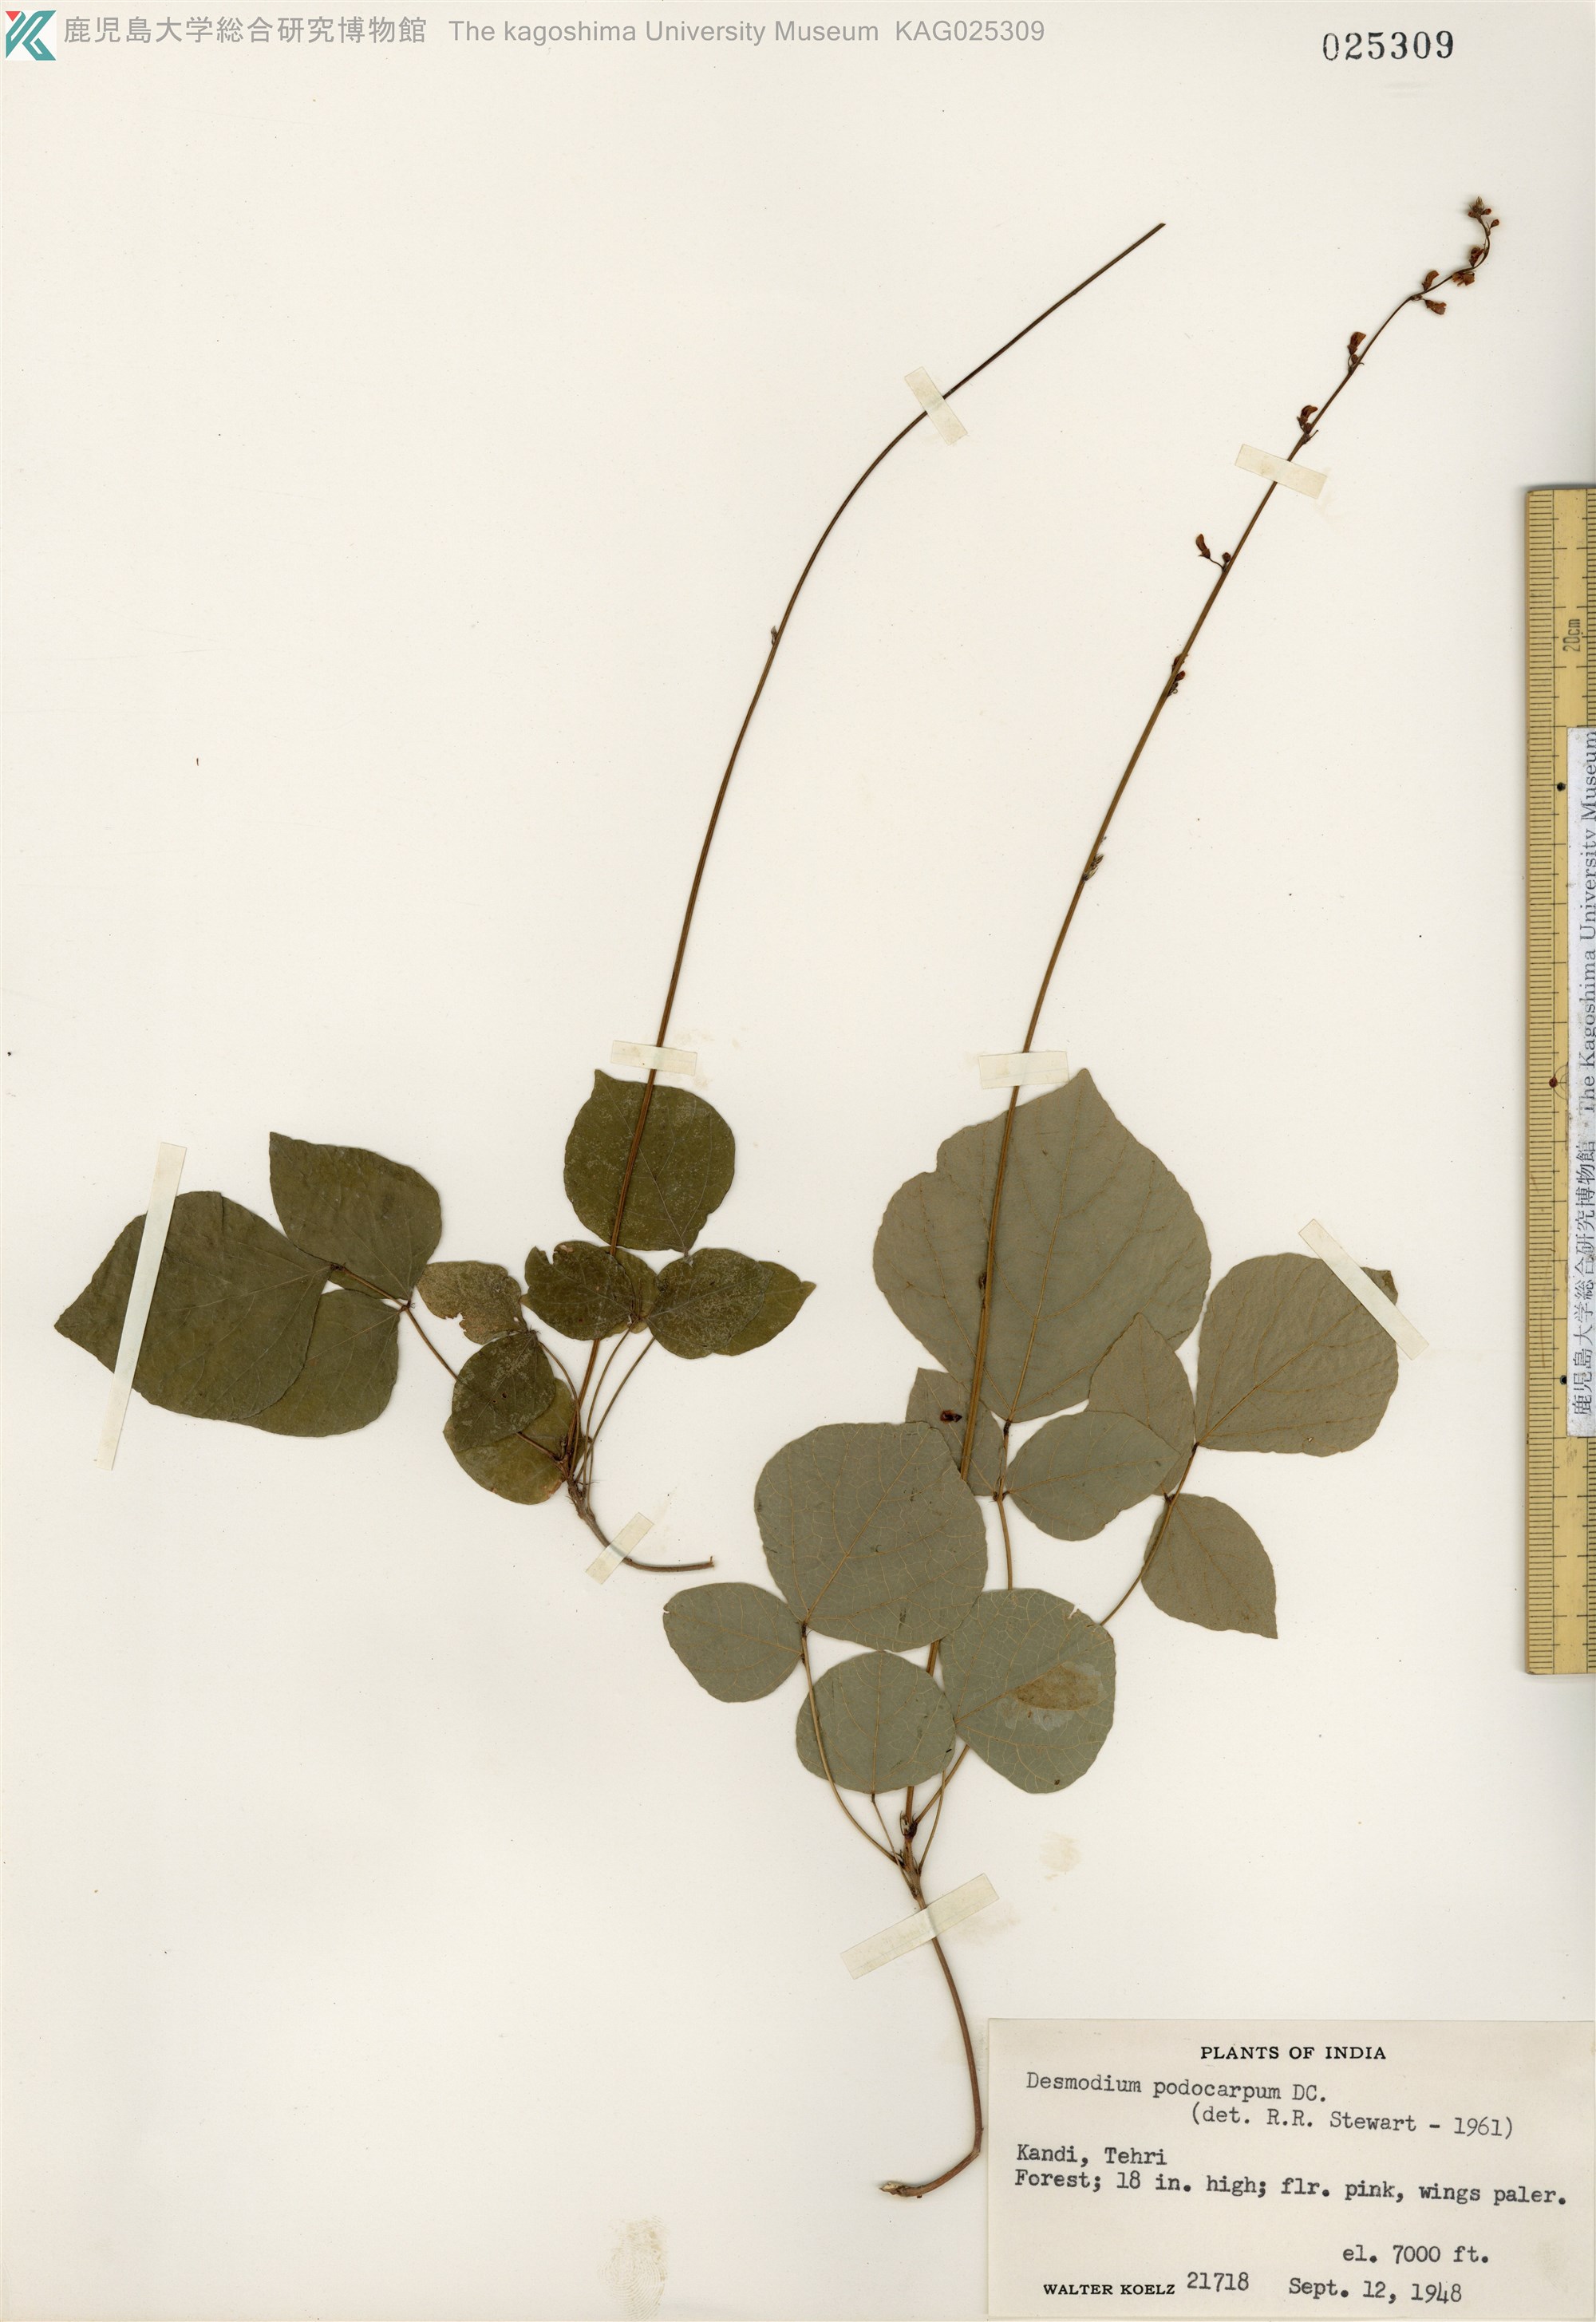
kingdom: Plantae
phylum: Tracheophyta
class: Magnoliopsida
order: Fabales
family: Fabaceae
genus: Hylodesmum
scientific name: Hylodesmum podocarpum
